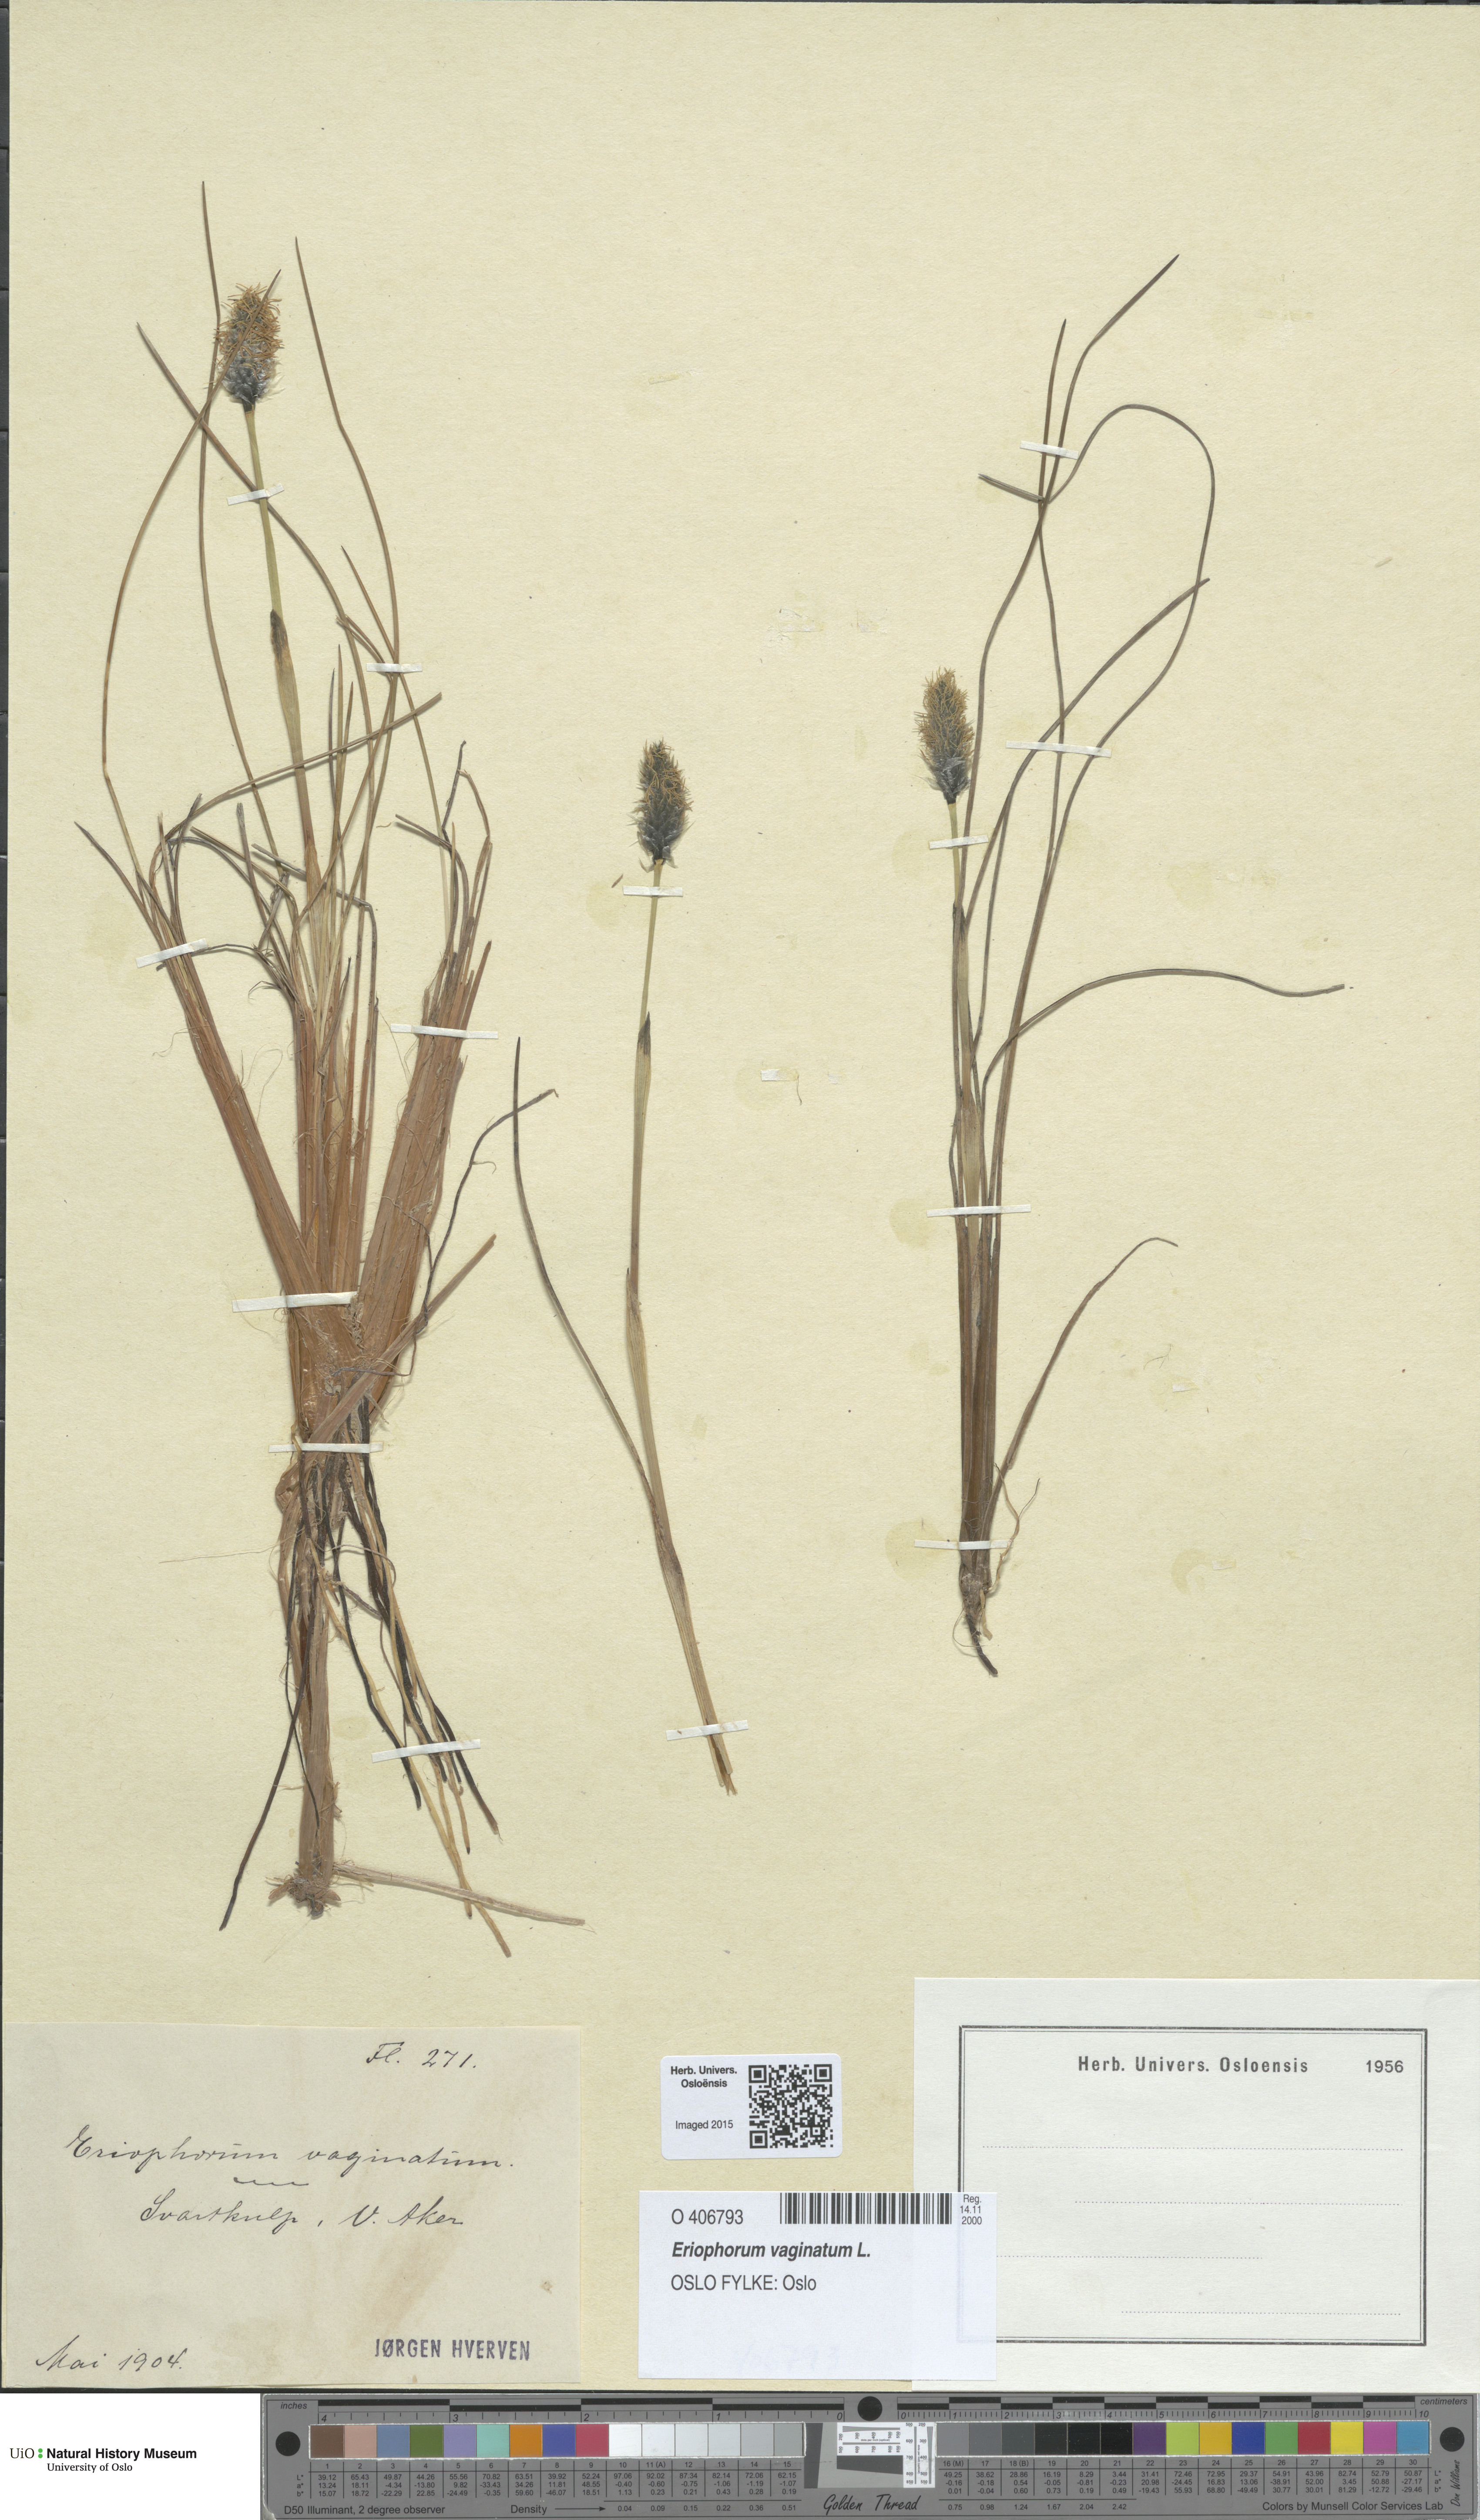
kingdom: Plantae
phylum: Tracheophyta
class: Liliopsida
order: Poales
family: Cyperaceae
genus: Eriophorum
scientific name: Eriophorum vaginatum
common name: Hare's-tail cottongrass
